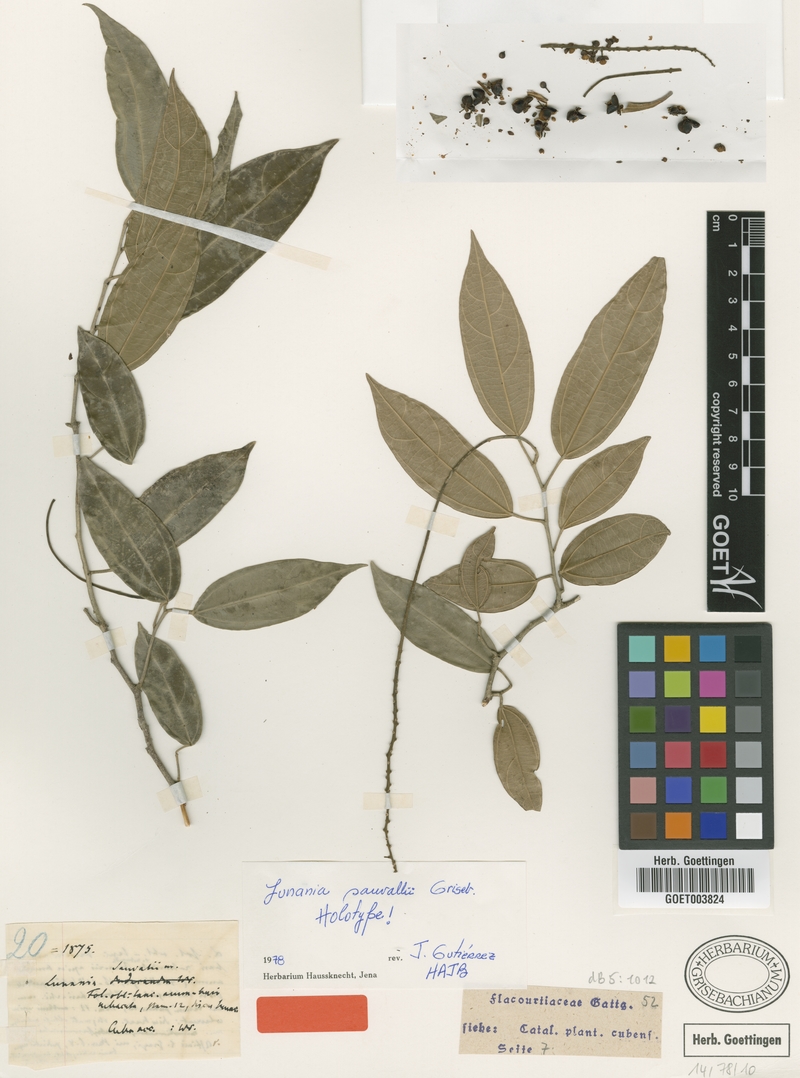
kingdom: Plantae
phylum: Tracheophyta
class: Magnoliopsida
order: Malpighiales
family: Salicaceae
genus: Lunania
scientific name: Lunania sauvallei
